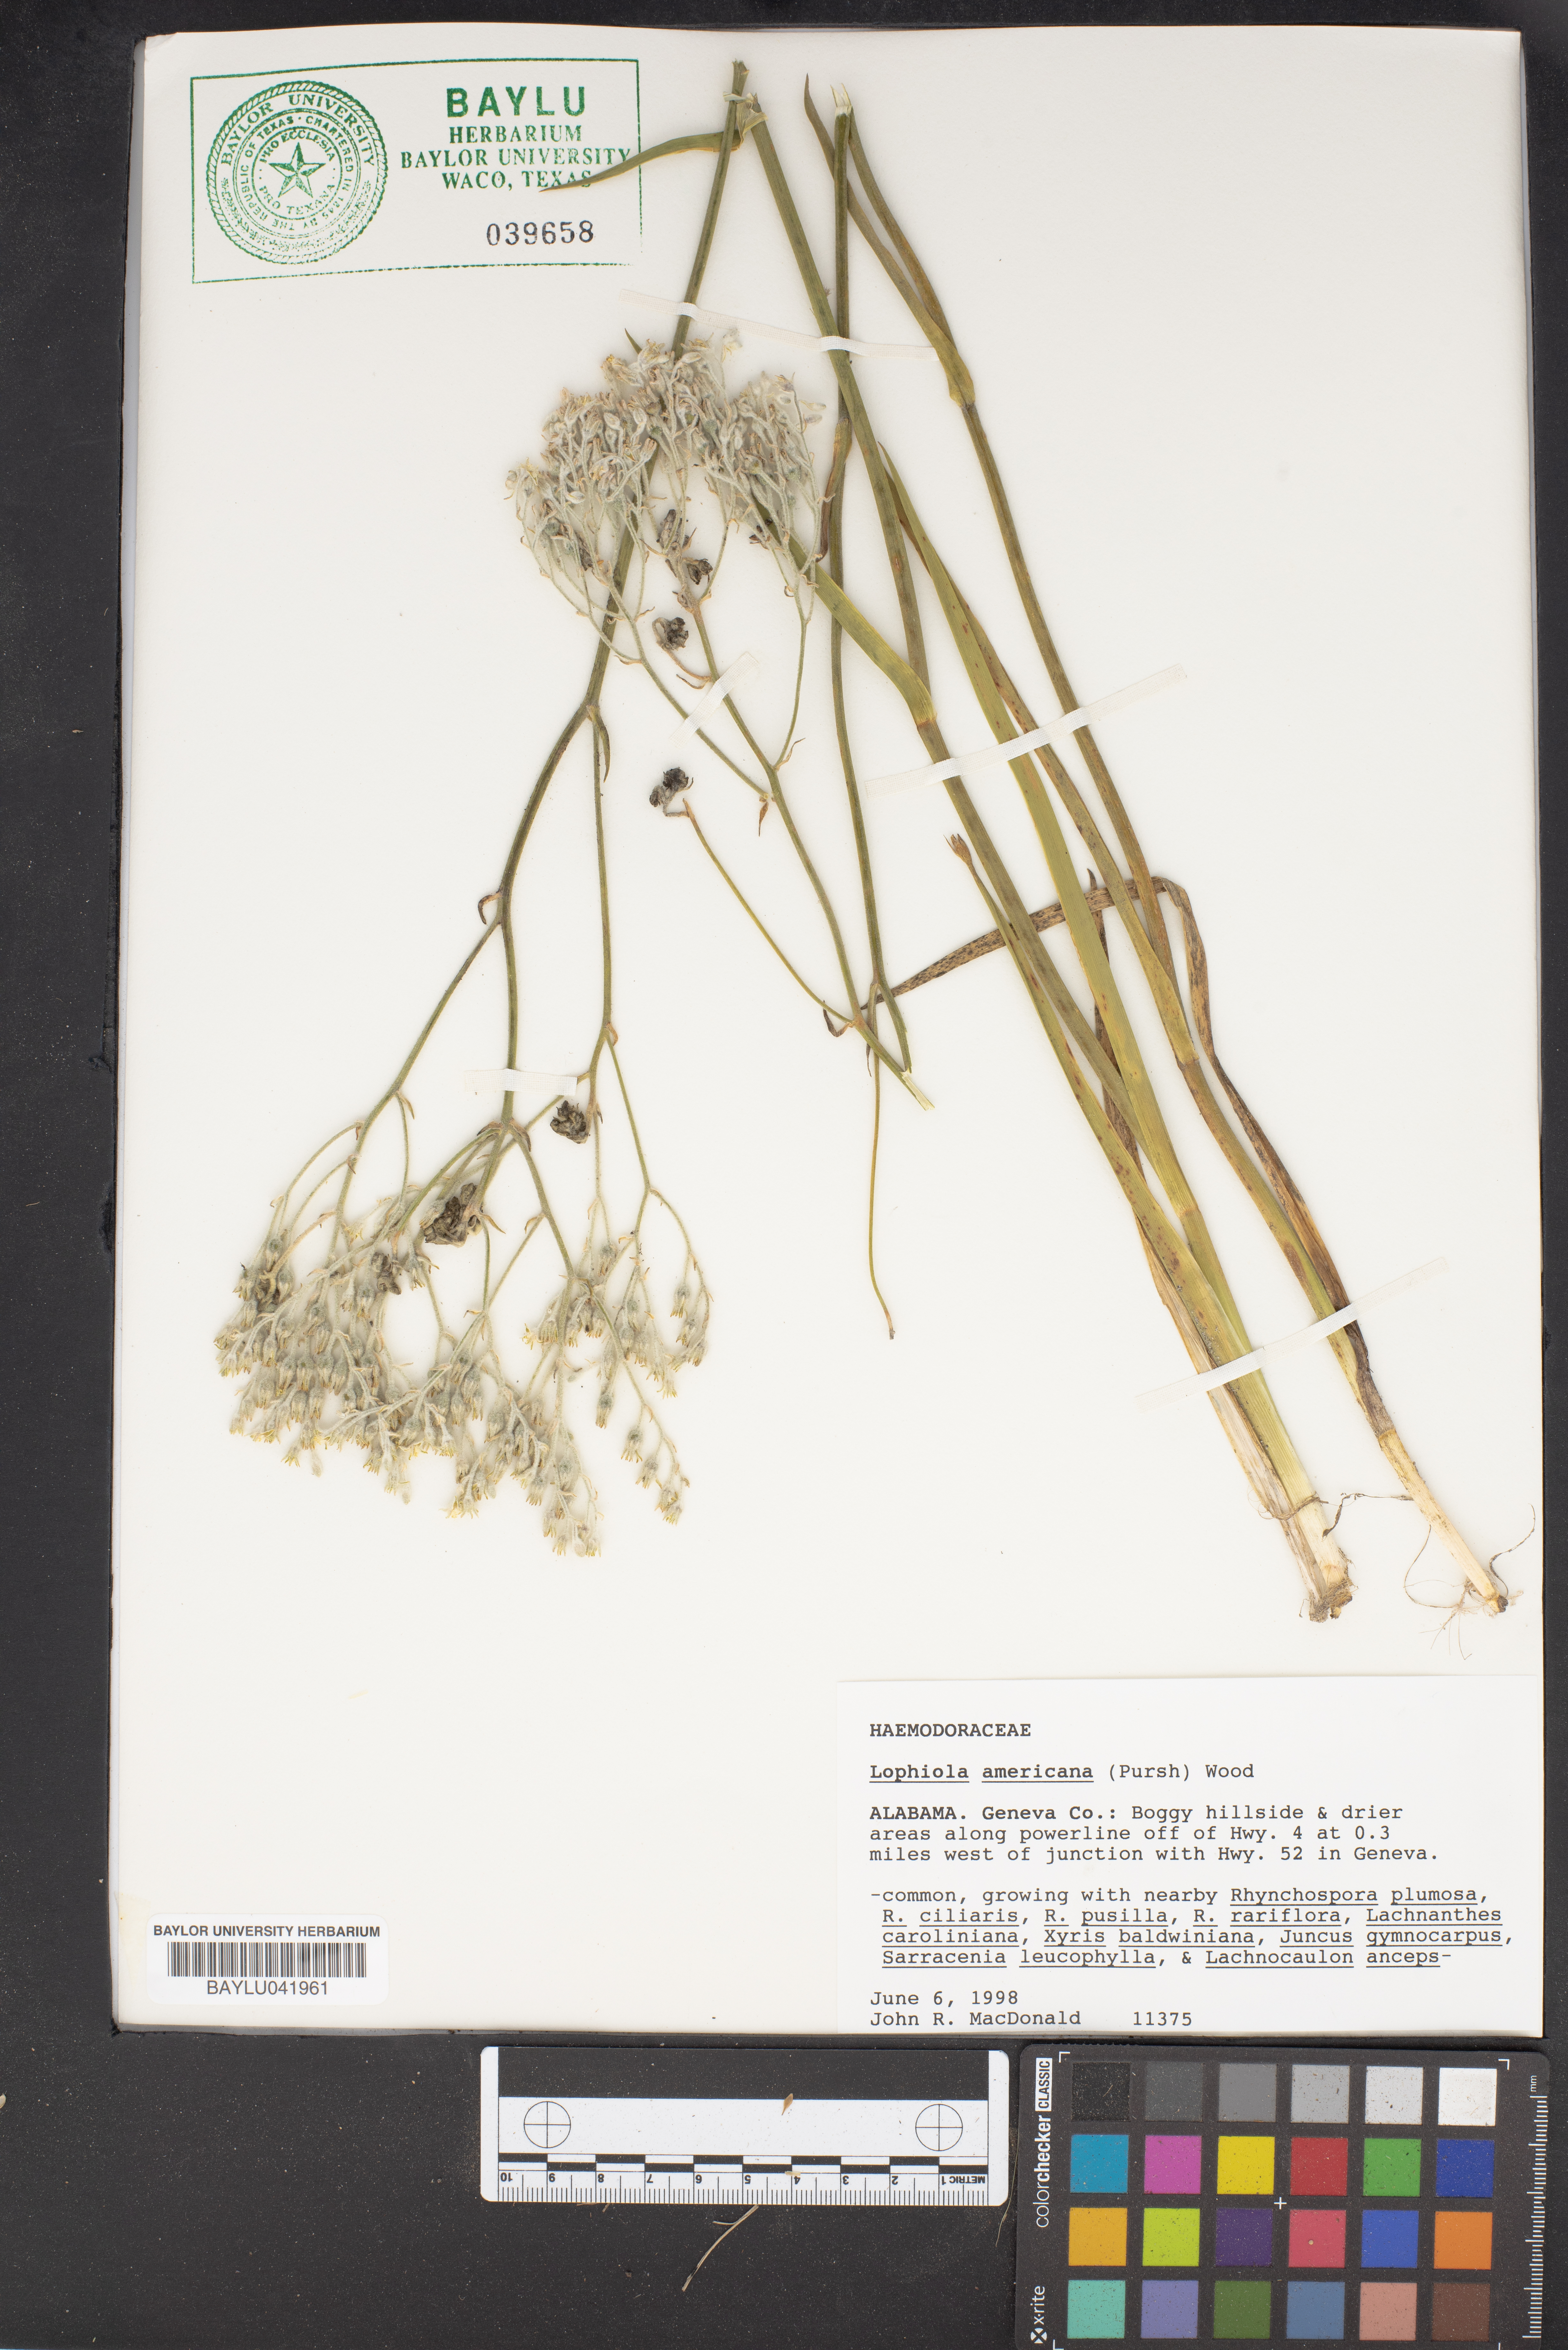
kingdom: Plantae
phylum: Tracheophyta
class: Liliopsida
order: Dioscoreales
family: Nartheciaceae
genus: Lophiola
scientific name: Lophiola aurea
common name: Golden-crest
